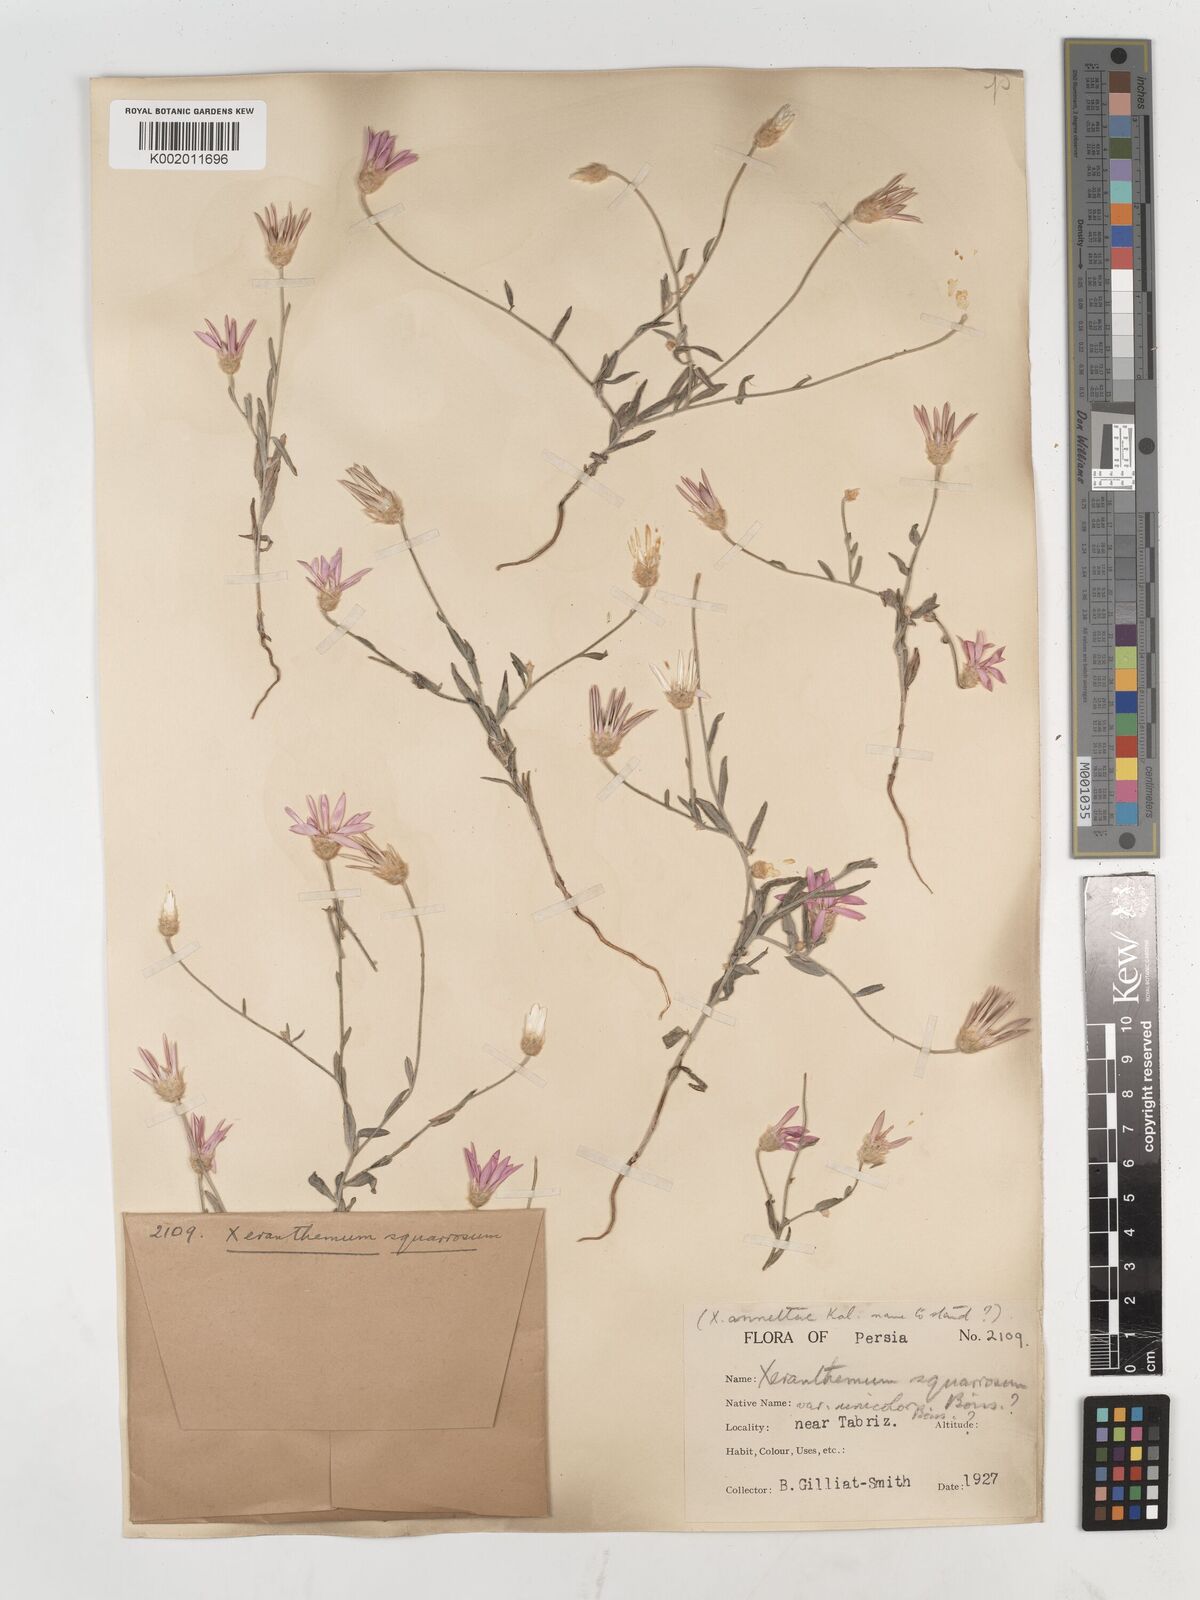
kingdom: Plantae
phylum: Tracheophyta
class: Magnoliopsida
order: Asterales
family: Asteraceae
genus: Xeranthemum
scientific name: Xeranthemum squarrosum
